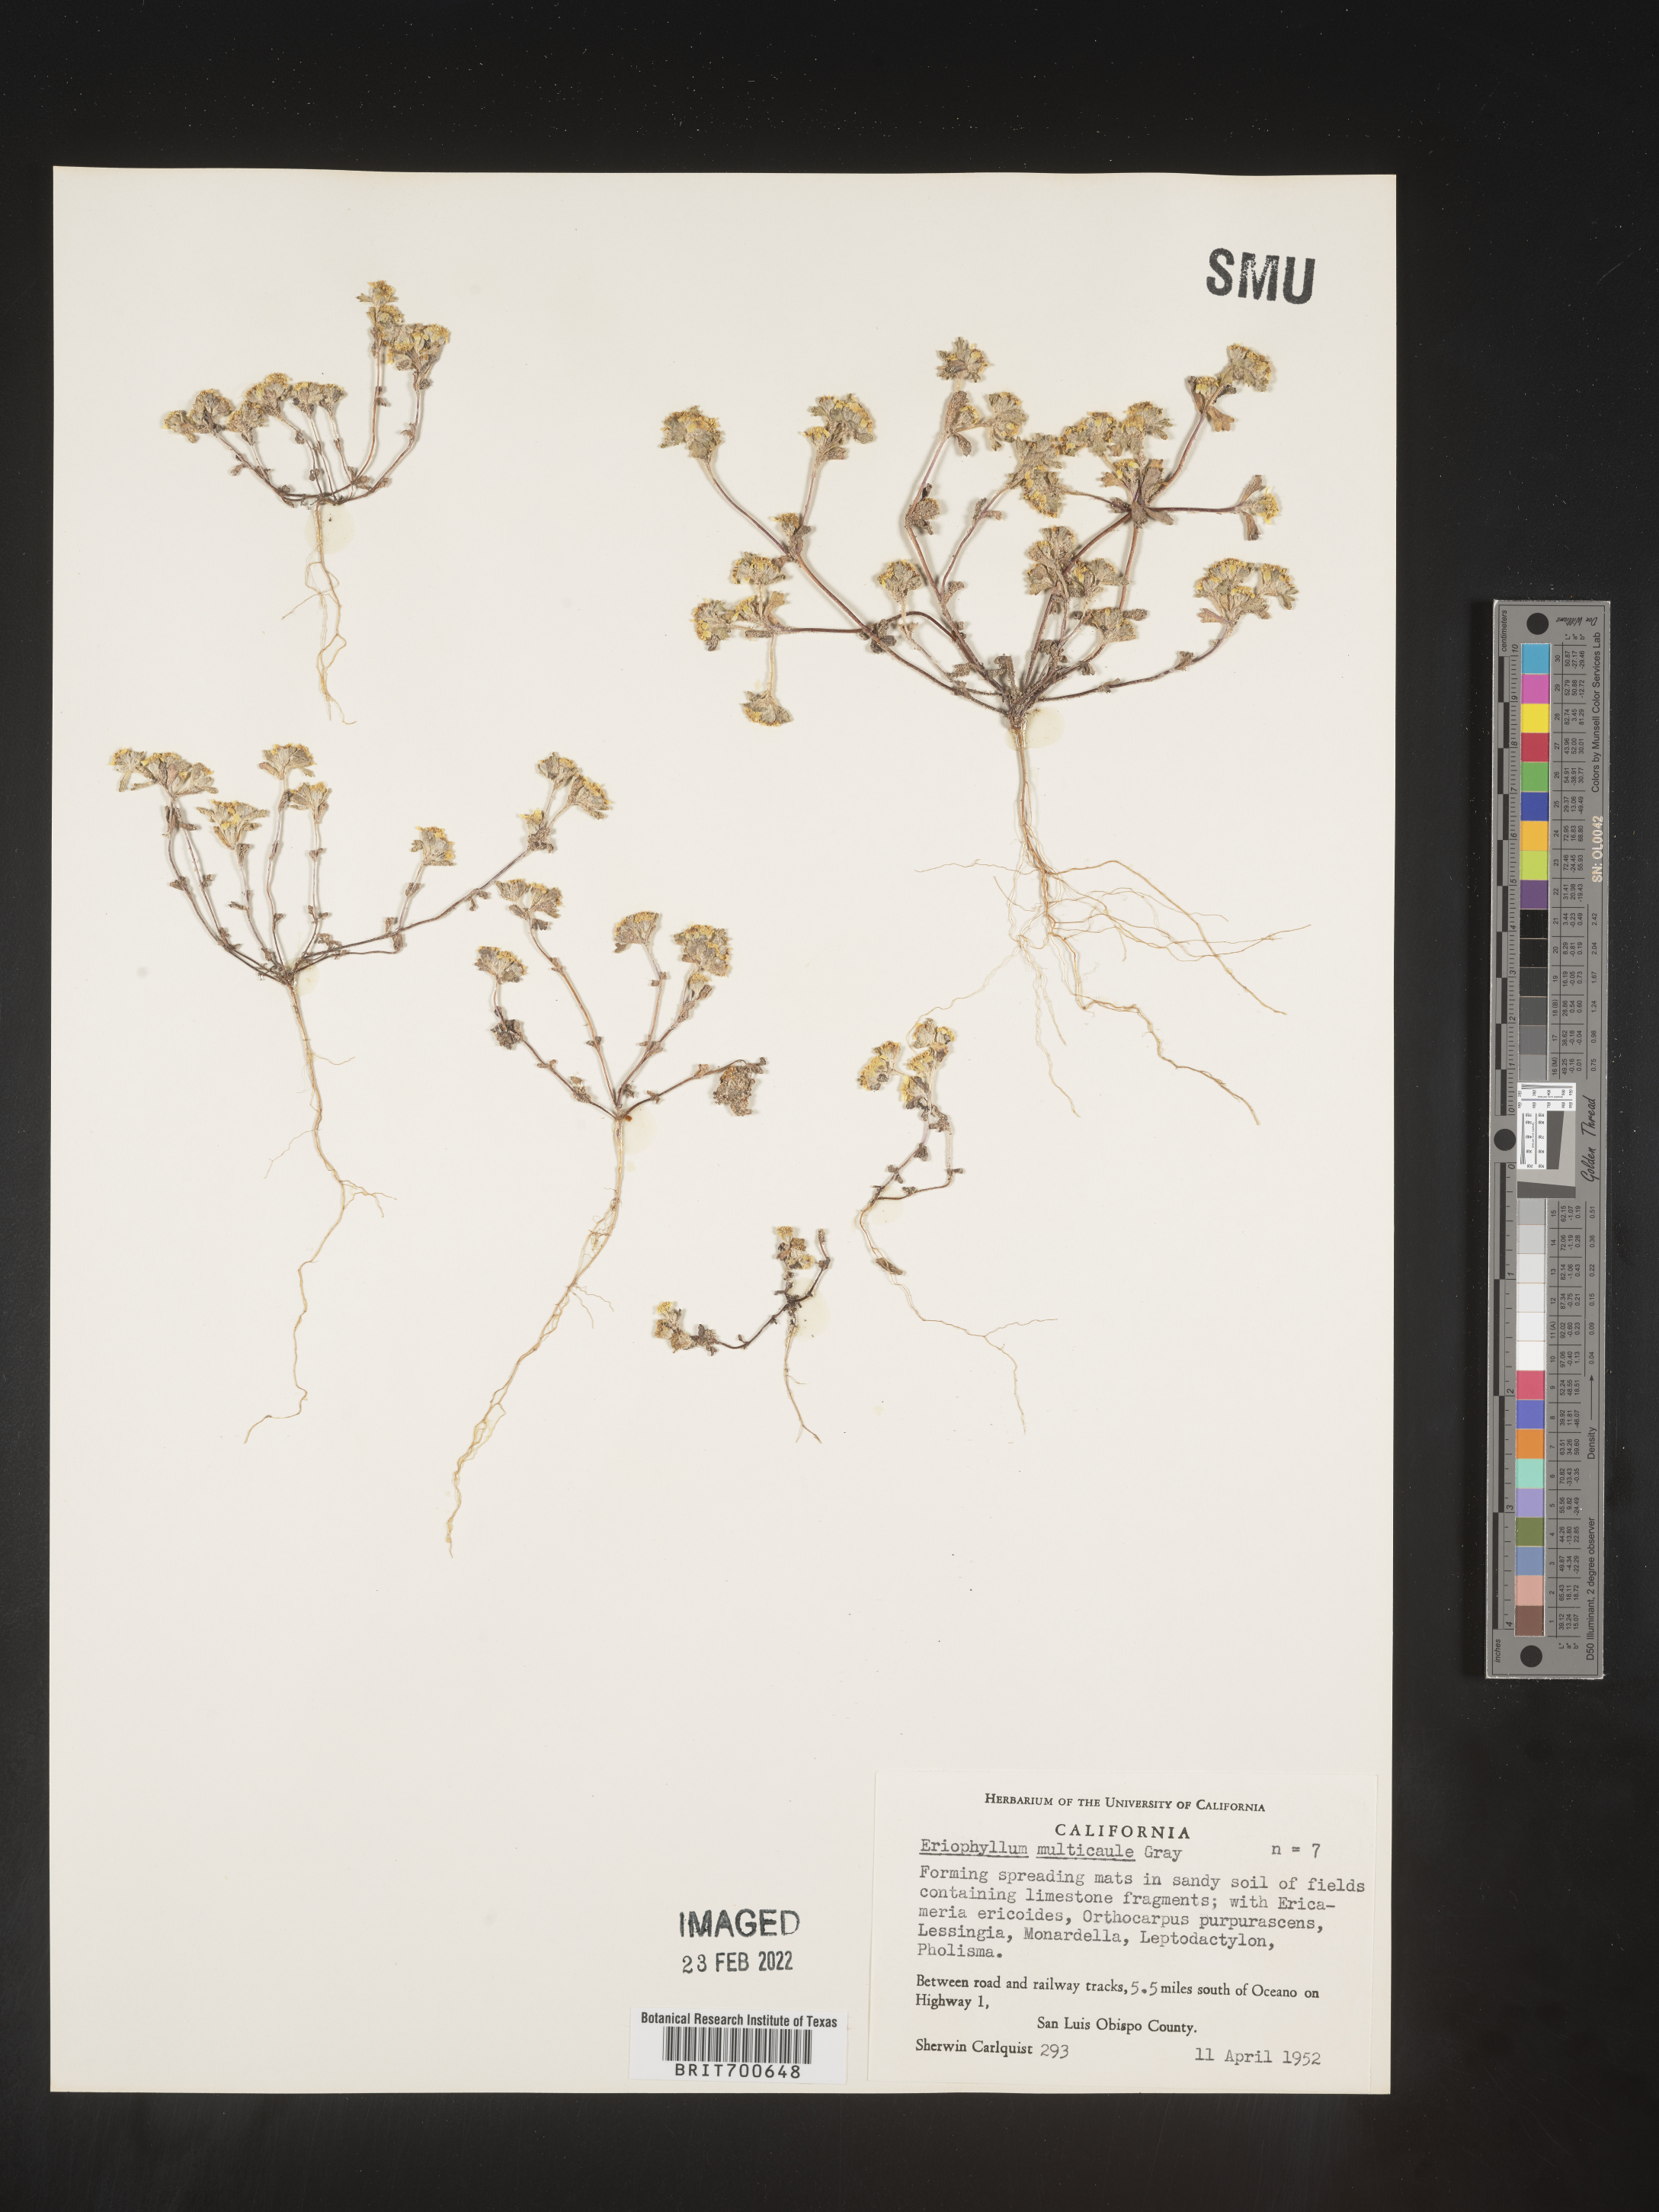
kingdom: Plantae
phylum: Tracheophyta
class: Magnoliopsida
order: Asterales
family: Asteraceae
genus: Eriophyllum
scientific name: Eriophyllum multicaule
